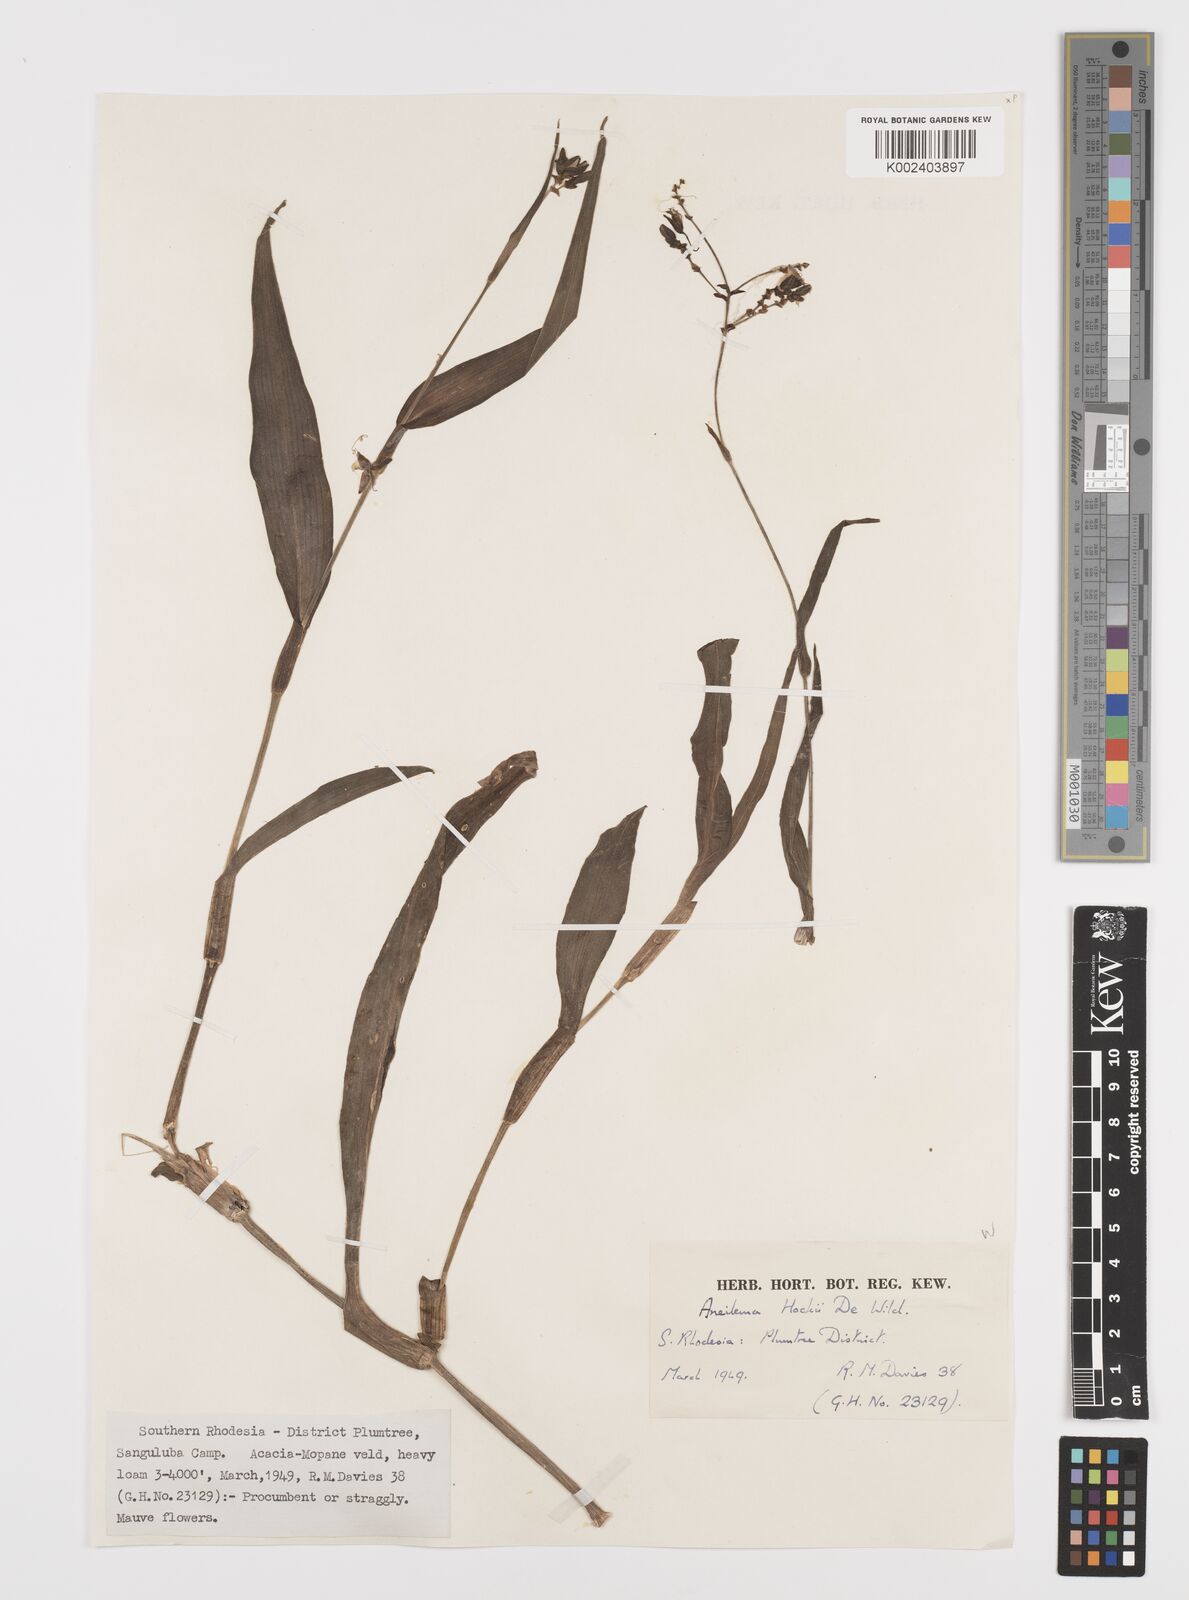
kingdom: Plantae
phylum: Tracheophyta
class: Liliopsida
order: Commelinales
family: Commelinaceae
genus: Aneilema
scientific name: Aneilema hockii
